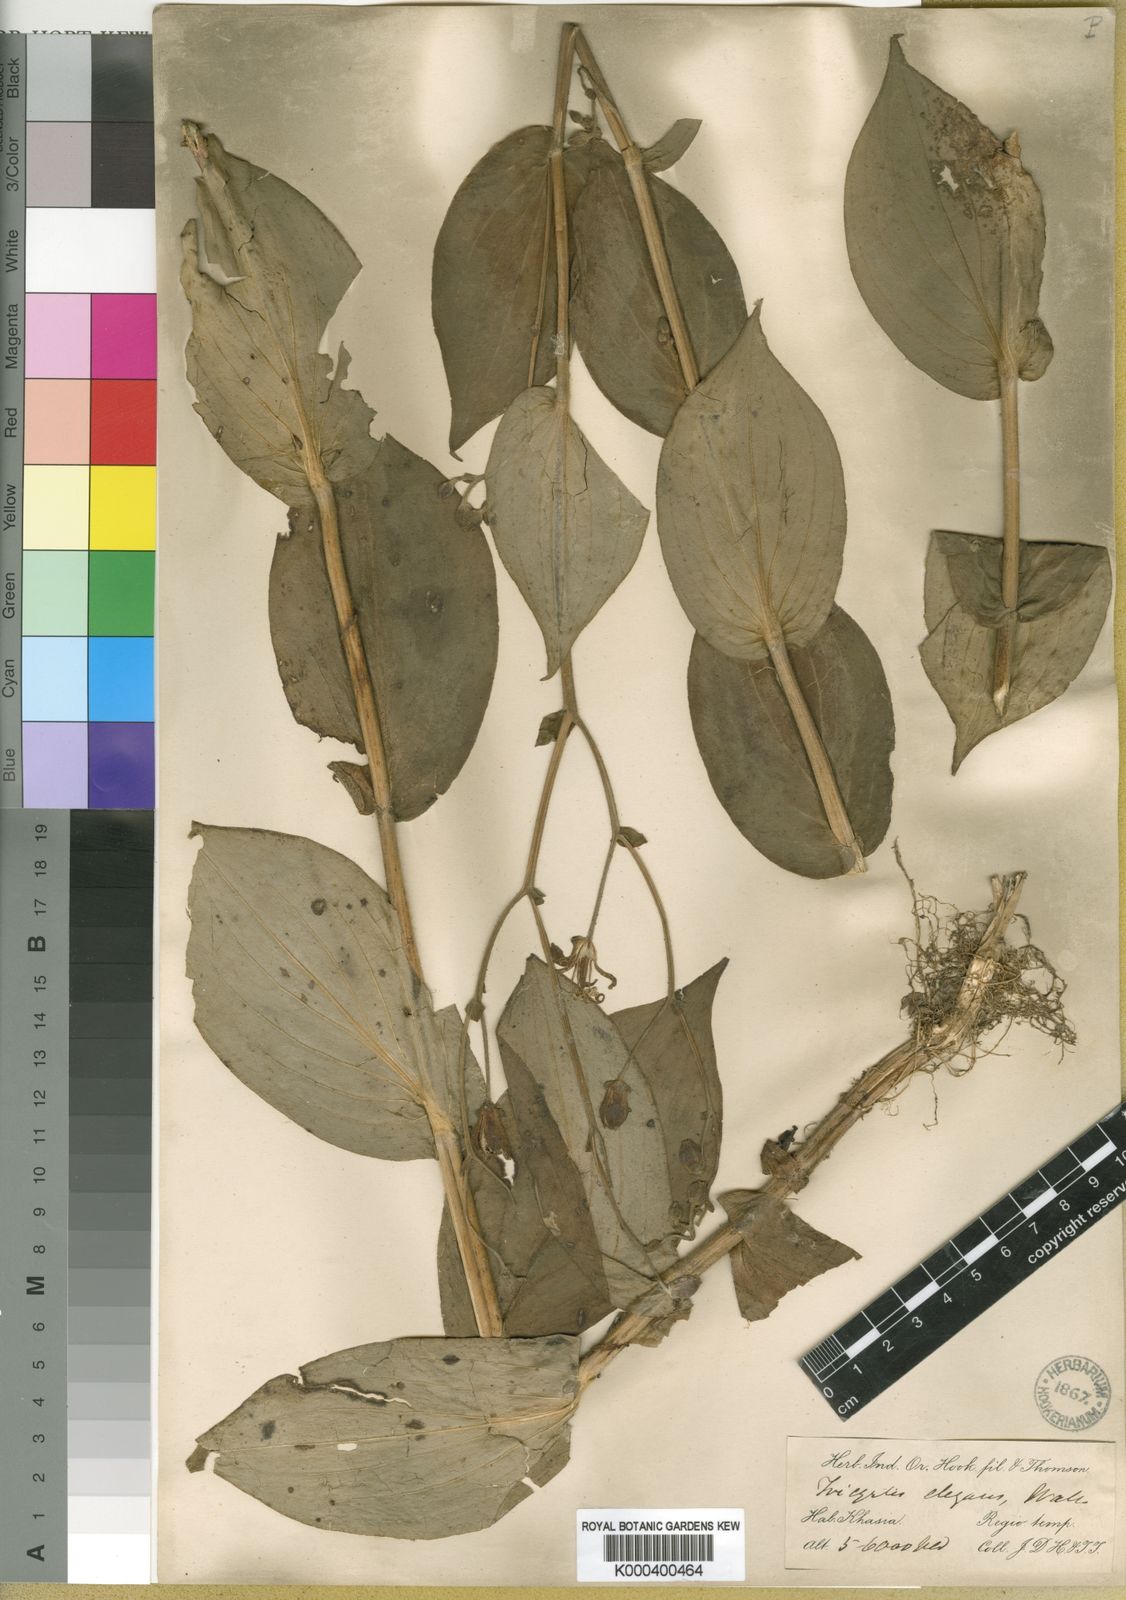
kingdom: Plantae
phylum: Tracheophyta
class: Liliopsida
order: Liliales
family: Liliaceae
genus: Tricyrtis
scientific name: Tricyrtis maculata
